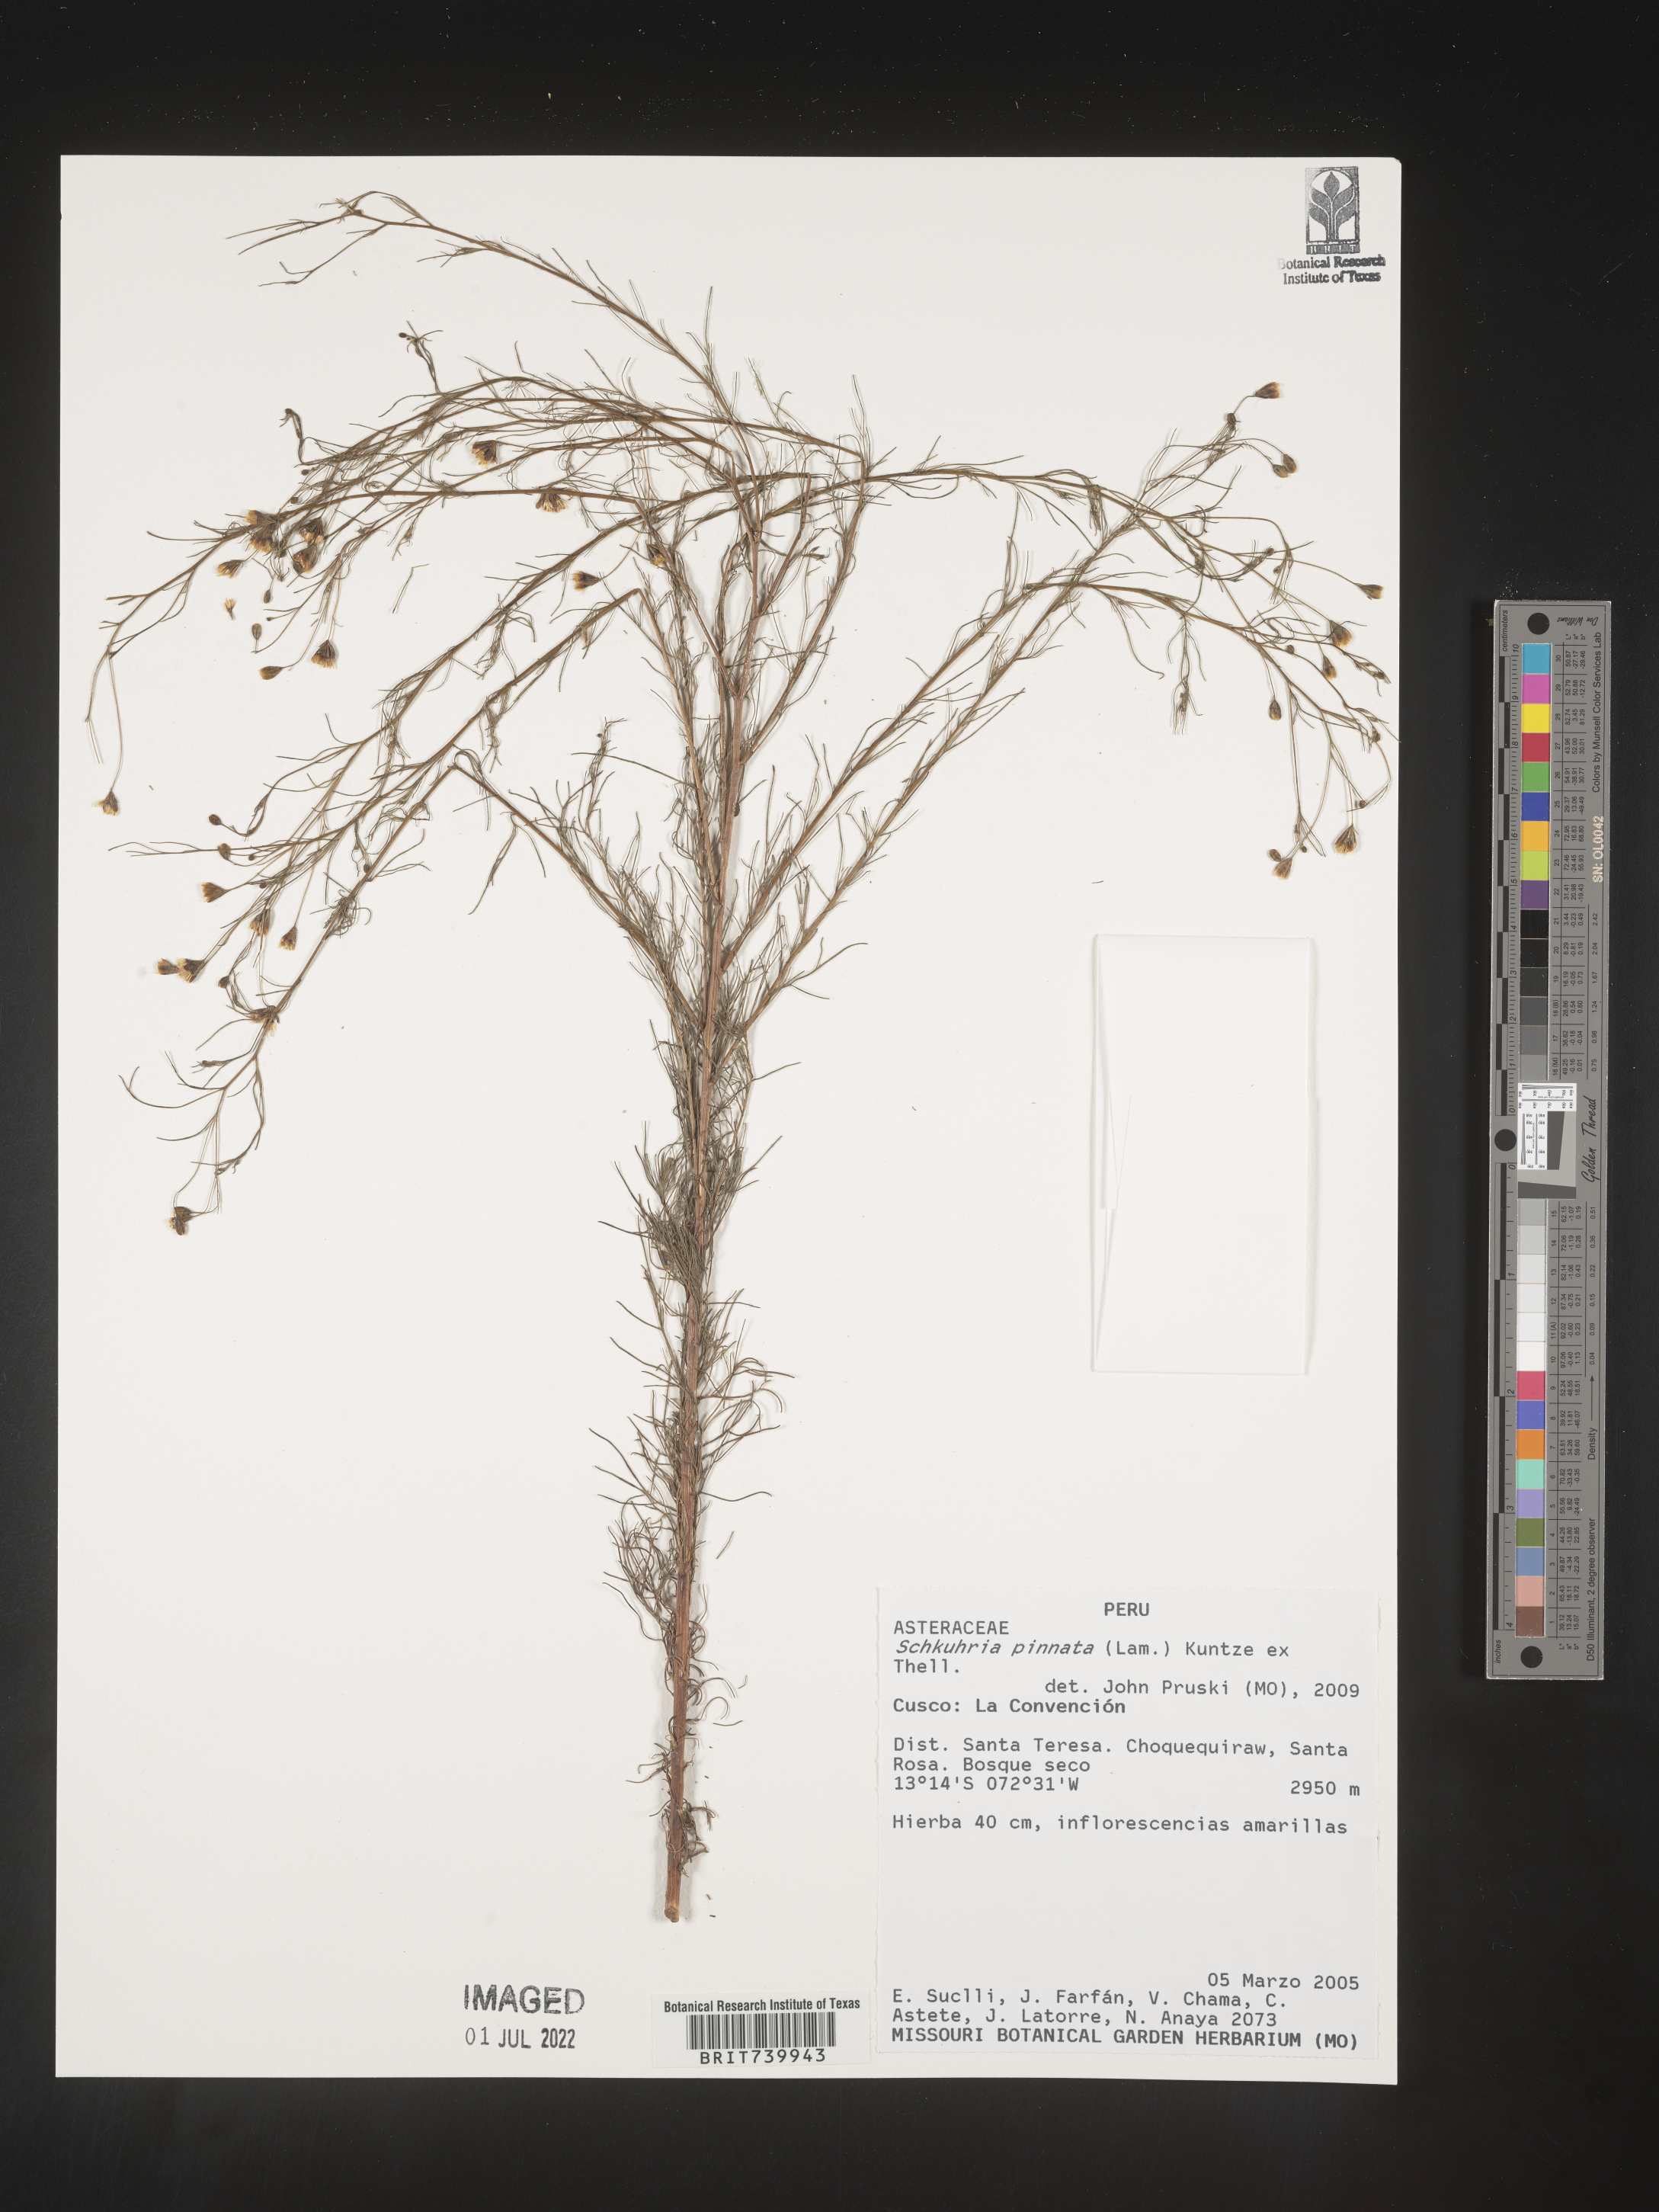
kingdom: Plantae
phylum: Tracheophyta
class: Magnoliopsida
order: Asterales
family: Asteraceae
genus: Schkuhria
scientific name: Schkuhria
